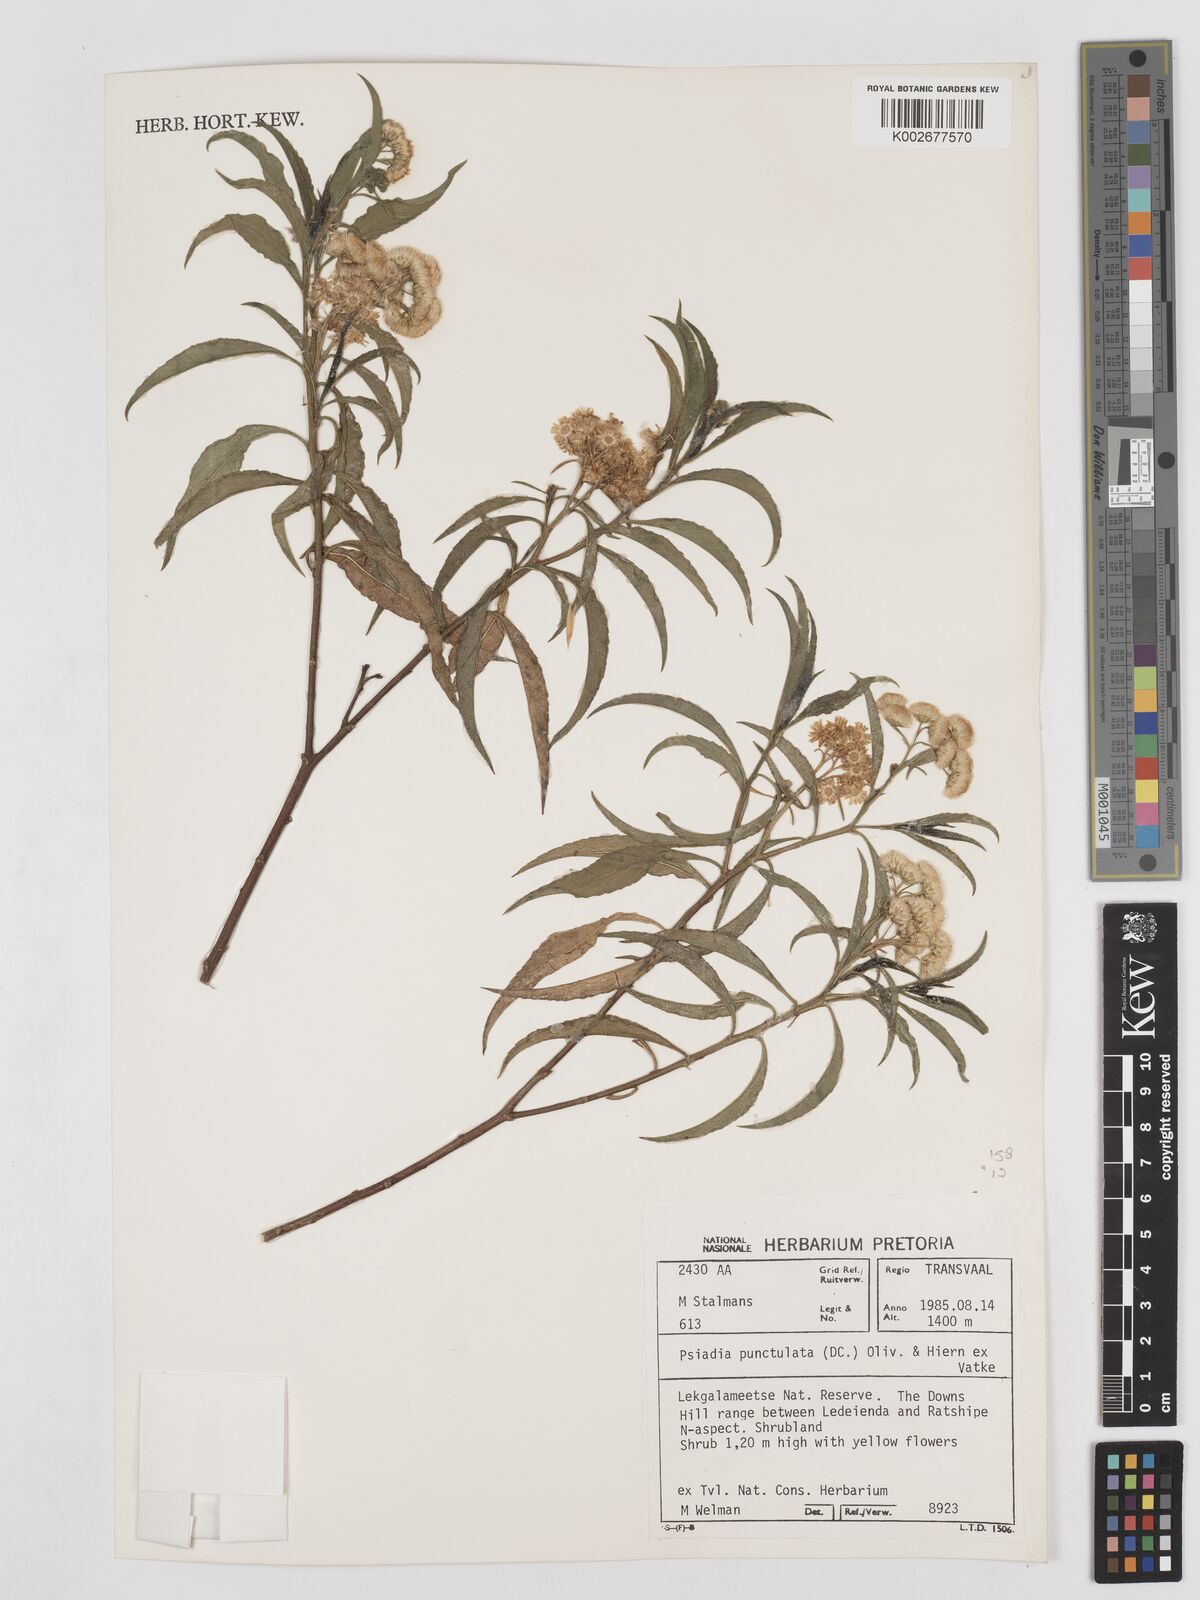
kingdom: Plantae
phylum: Tracheophyta
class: Magnoliopsida
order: Asterales
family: Asteraceae
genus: Psiadia
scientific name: Psiadia punctulata
